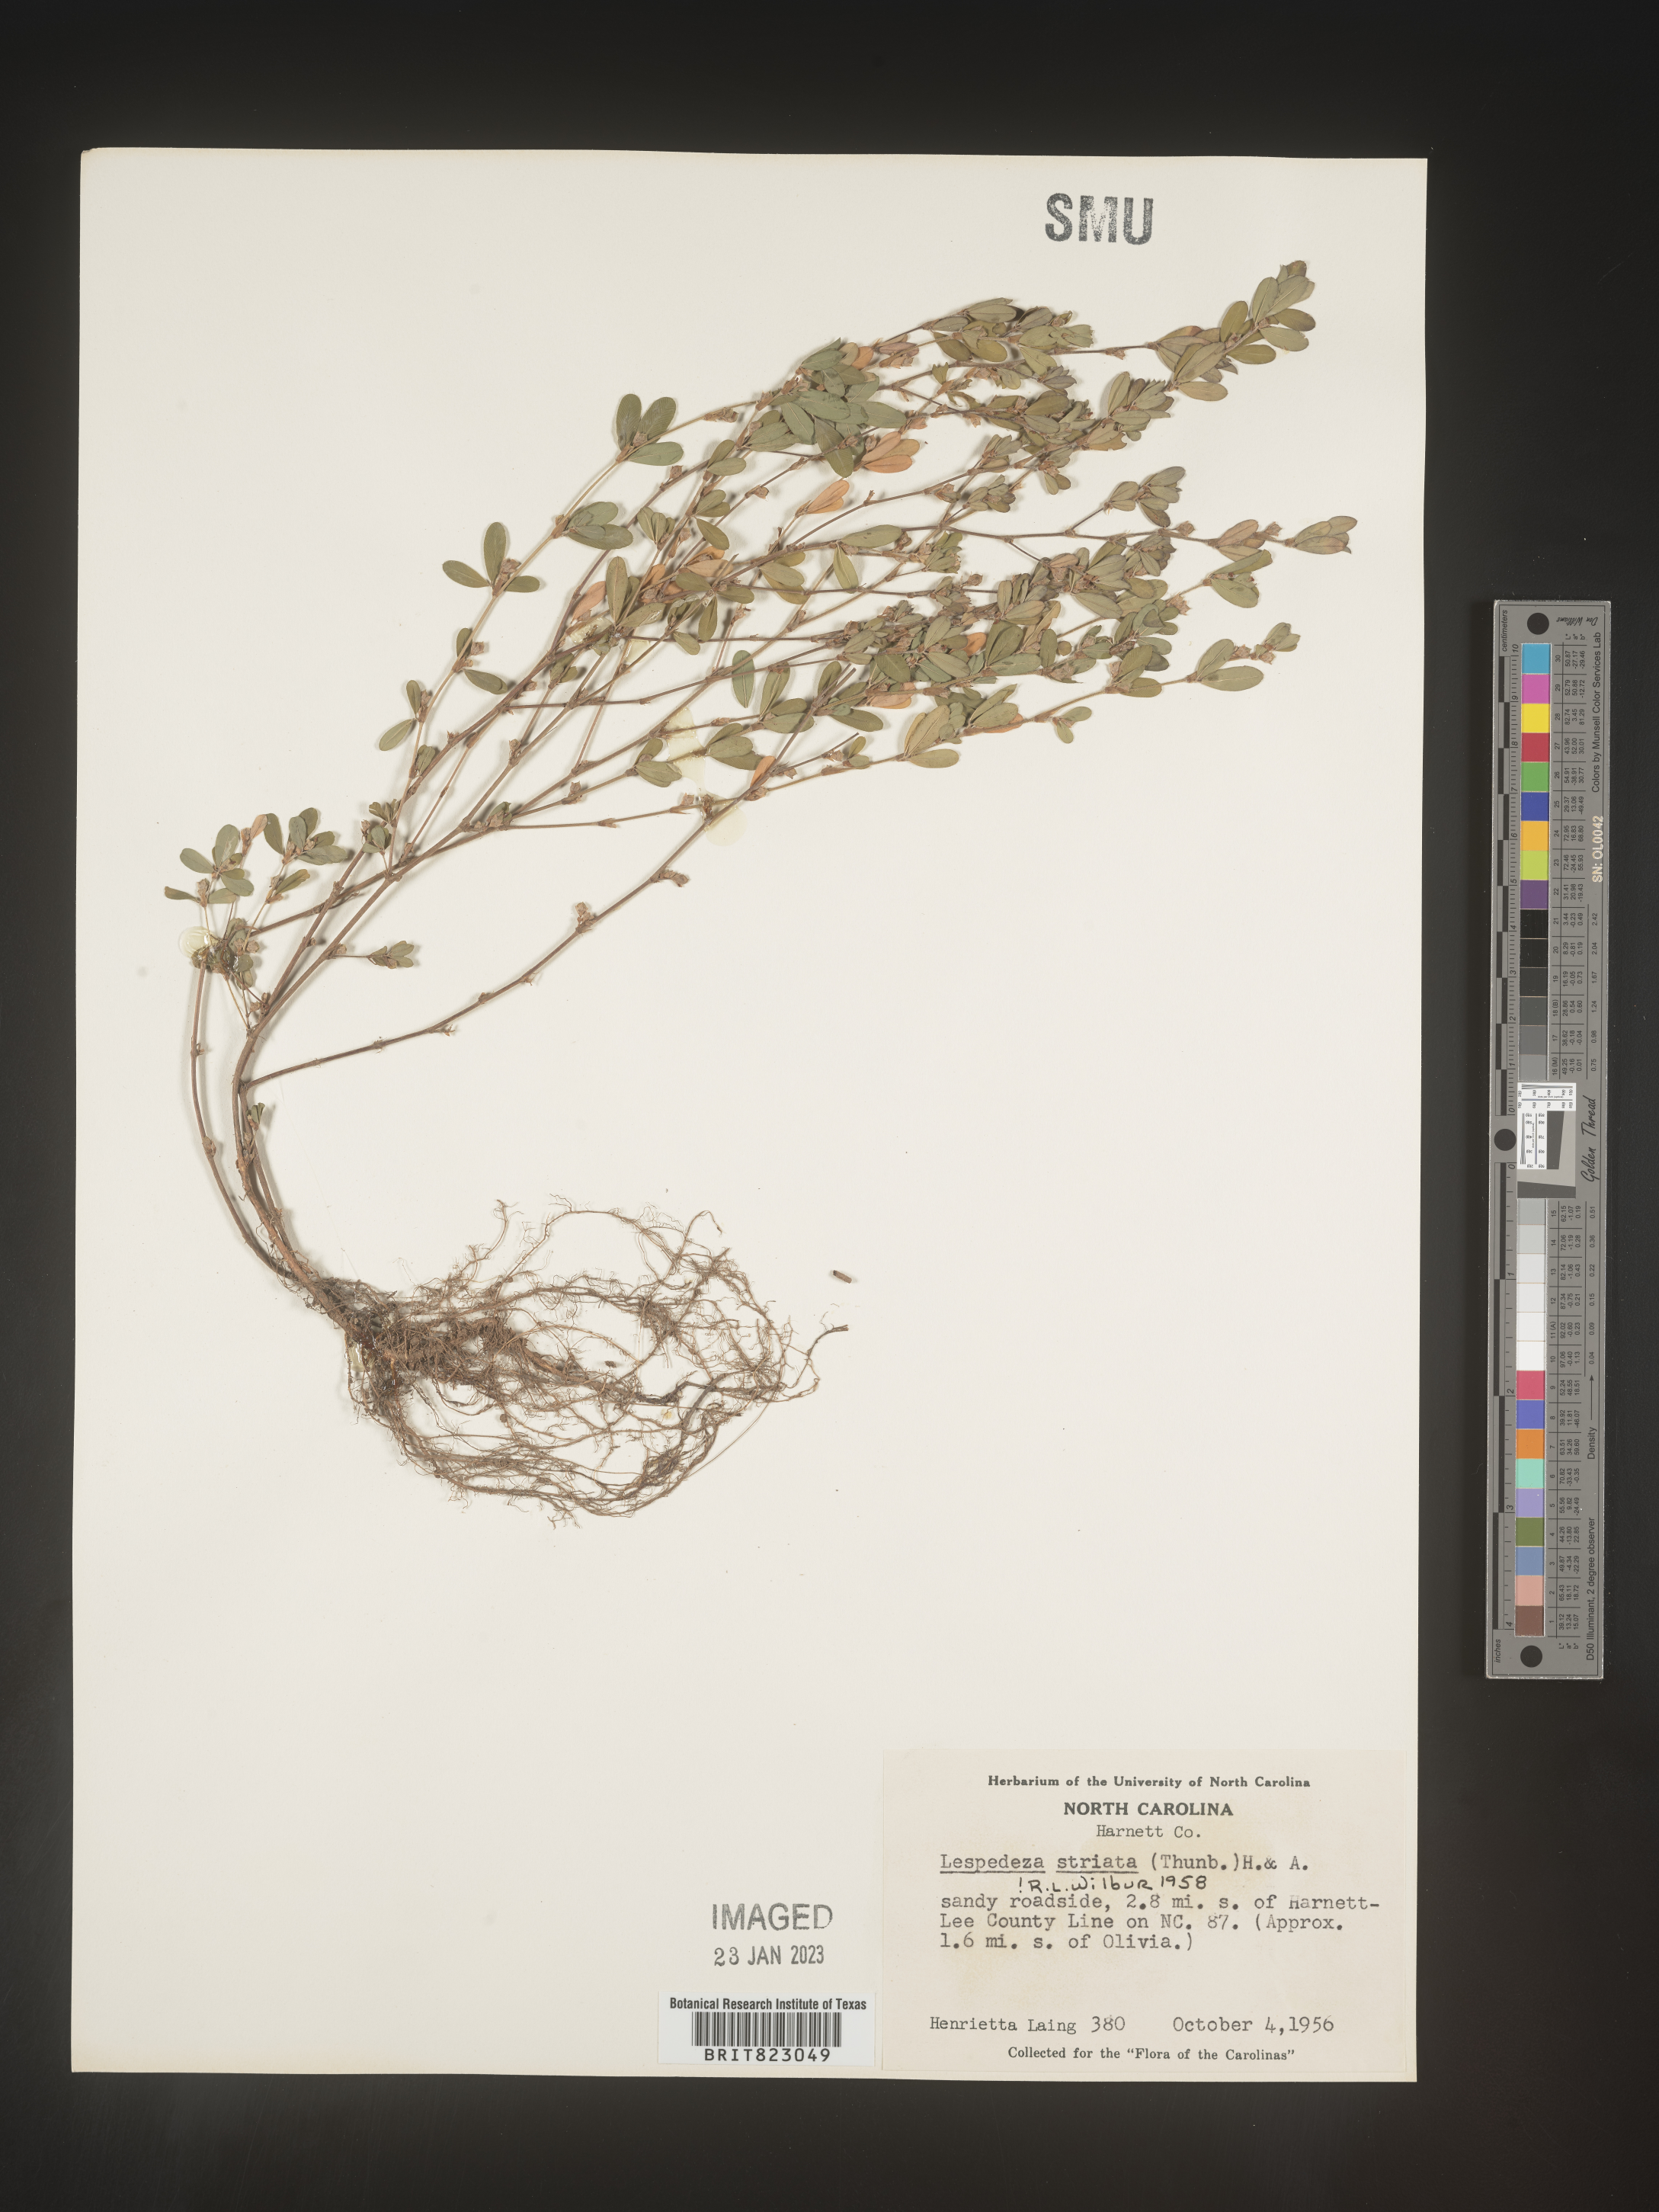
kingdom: Plantae
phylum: Tracheophyta
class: Magnoliopsida
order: Fabales
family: Fabaceae
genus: Kummerowia
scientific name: Kummerowia striata
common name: Japanese clover
